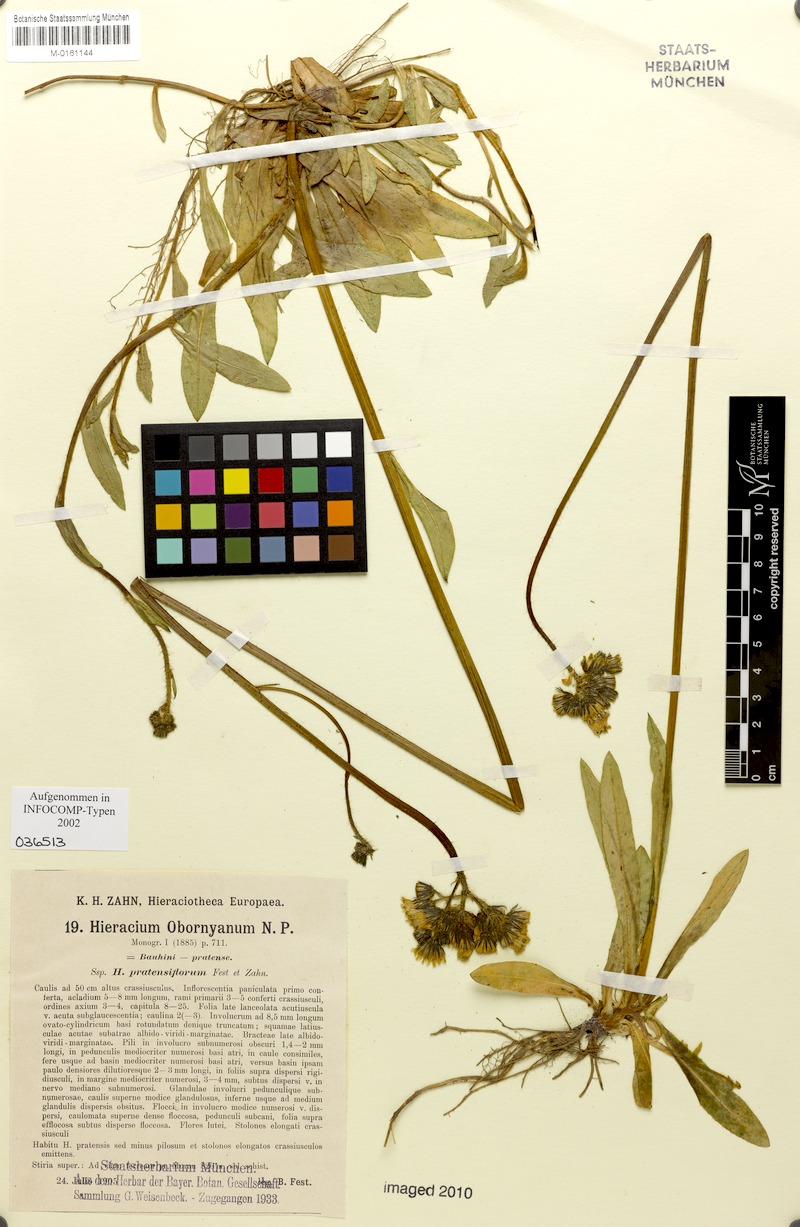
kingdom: Plantae
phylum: Tracheophyta
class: Magnoliopsida
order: Asterales
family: Asteraceae
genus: Pilosella
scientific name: Pilosella polymastix
